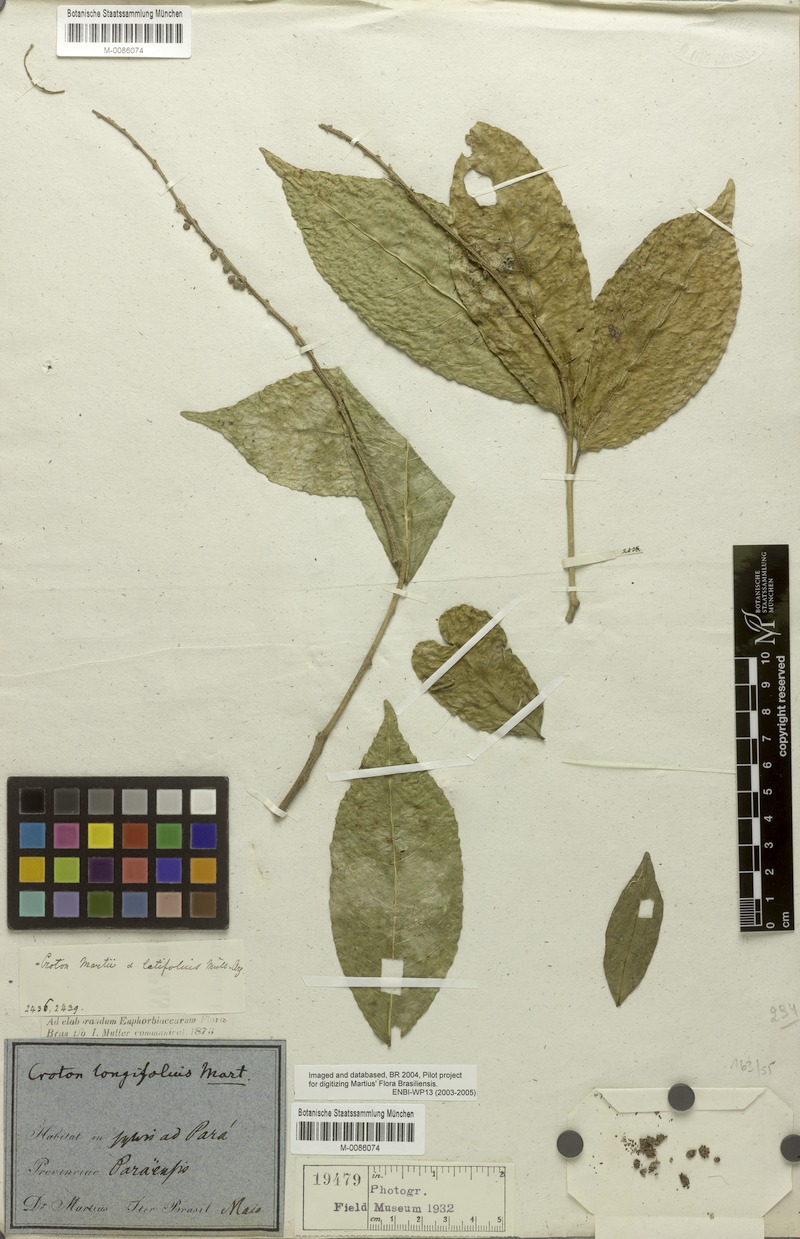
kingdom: Plantae
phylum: Tracheophyta
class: Magnoliopsida
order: Malpighiales
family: Euphorbiaceae
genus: Croton
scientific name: Croton cuneatus
